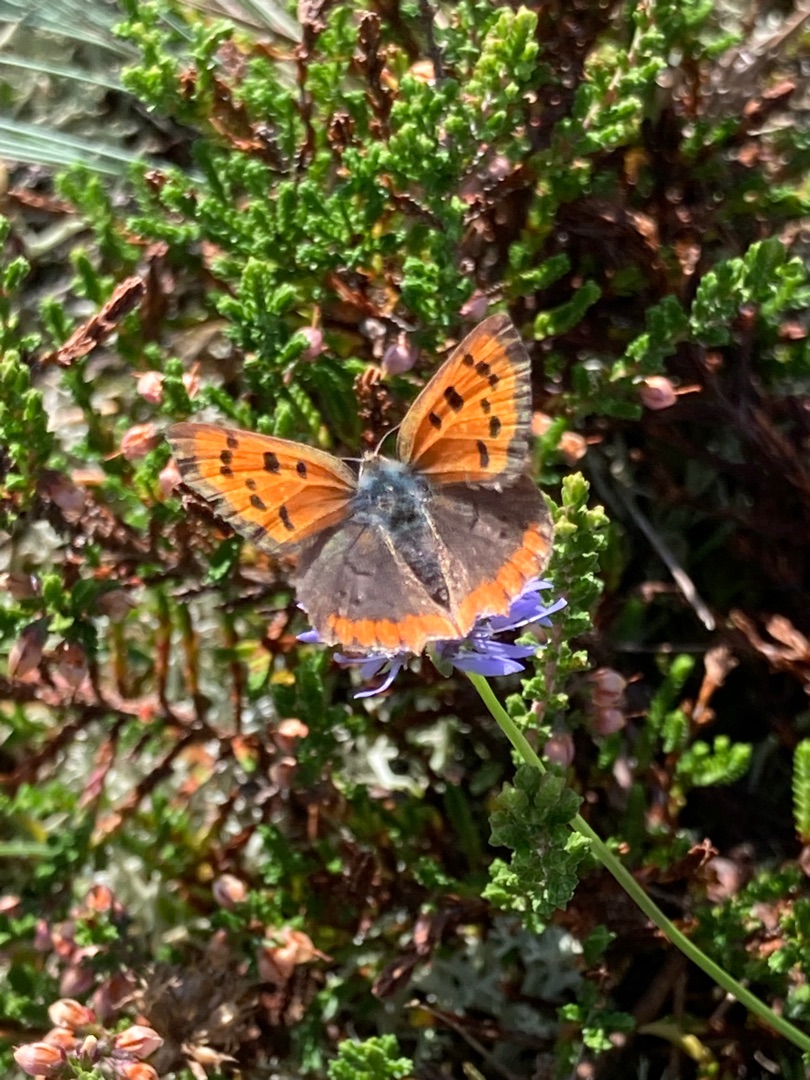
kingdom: Animalia
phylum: Arthropoda
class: Insecta
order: Lepidoptera
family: Lycaenidae
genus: Lycaena
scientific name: Lycaena phlaeas
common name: Lille ildfugl
